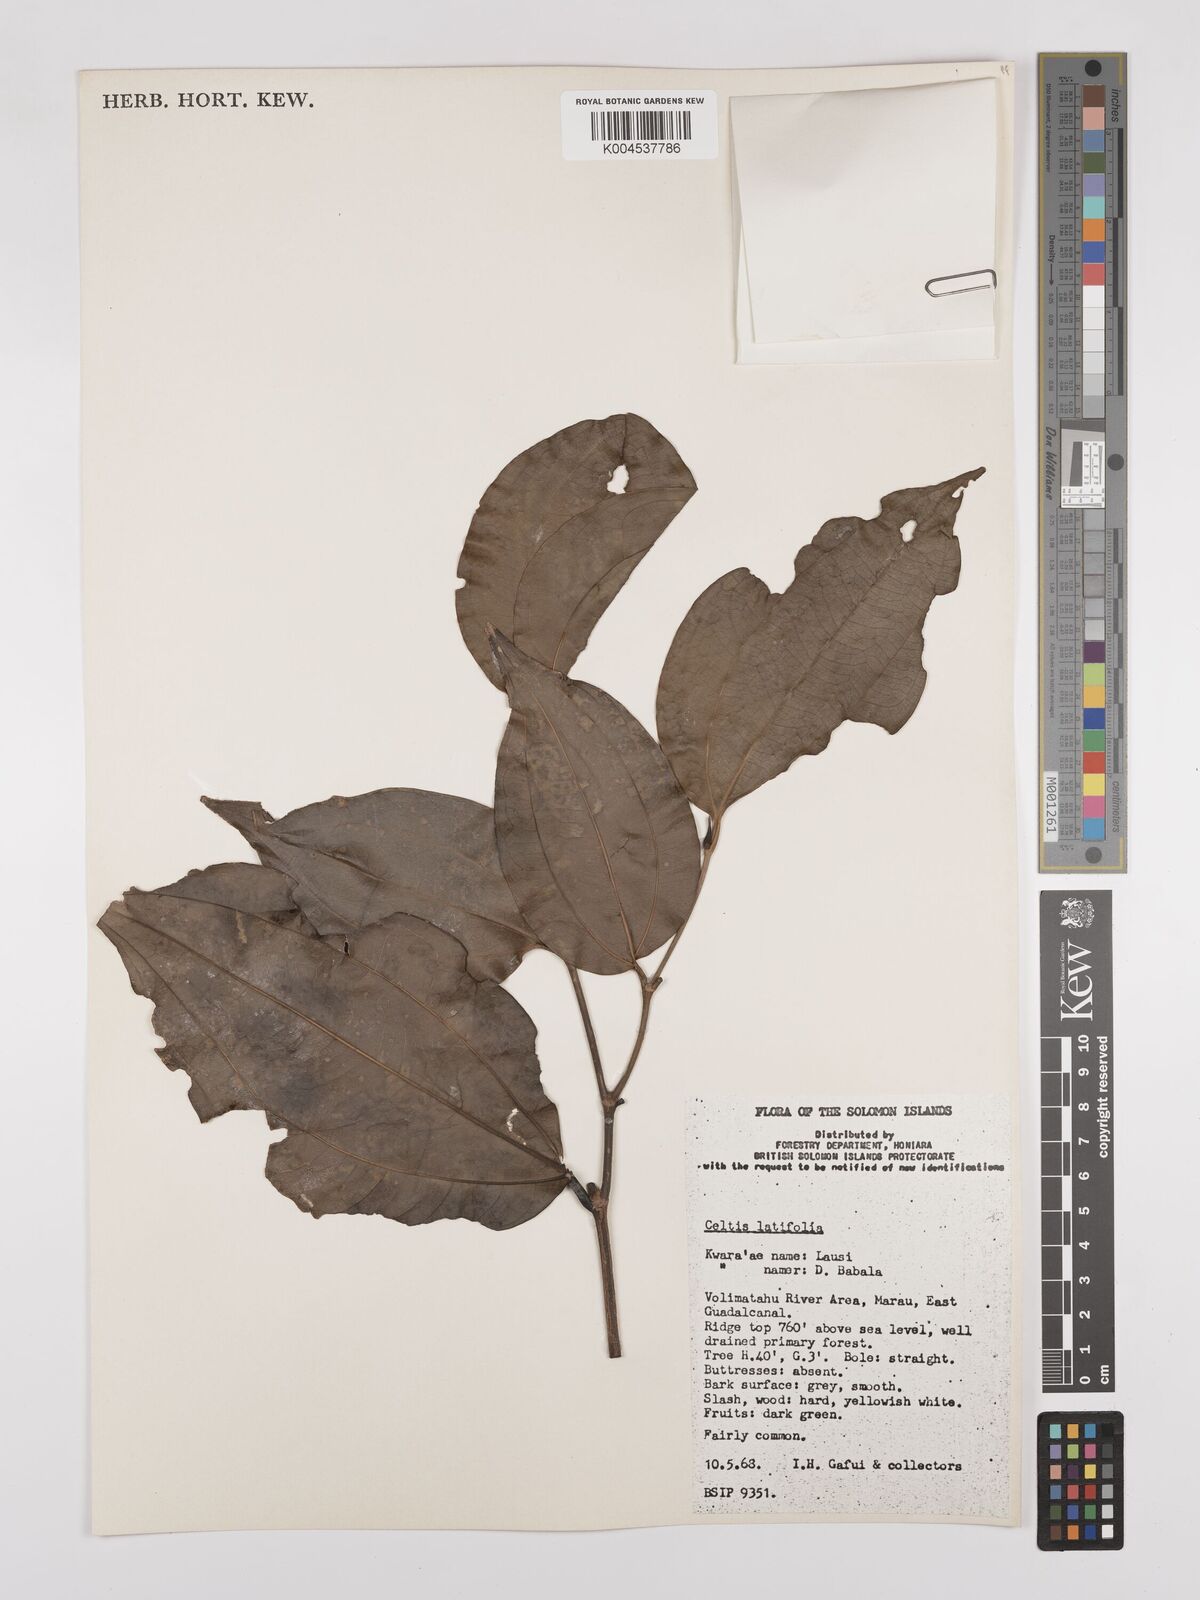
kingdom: Plantae
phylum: Tracheophyta
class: Magnoliopsida
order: Rosales
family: Cannabaceae
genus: Celtis
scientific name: Celtis latifolia
